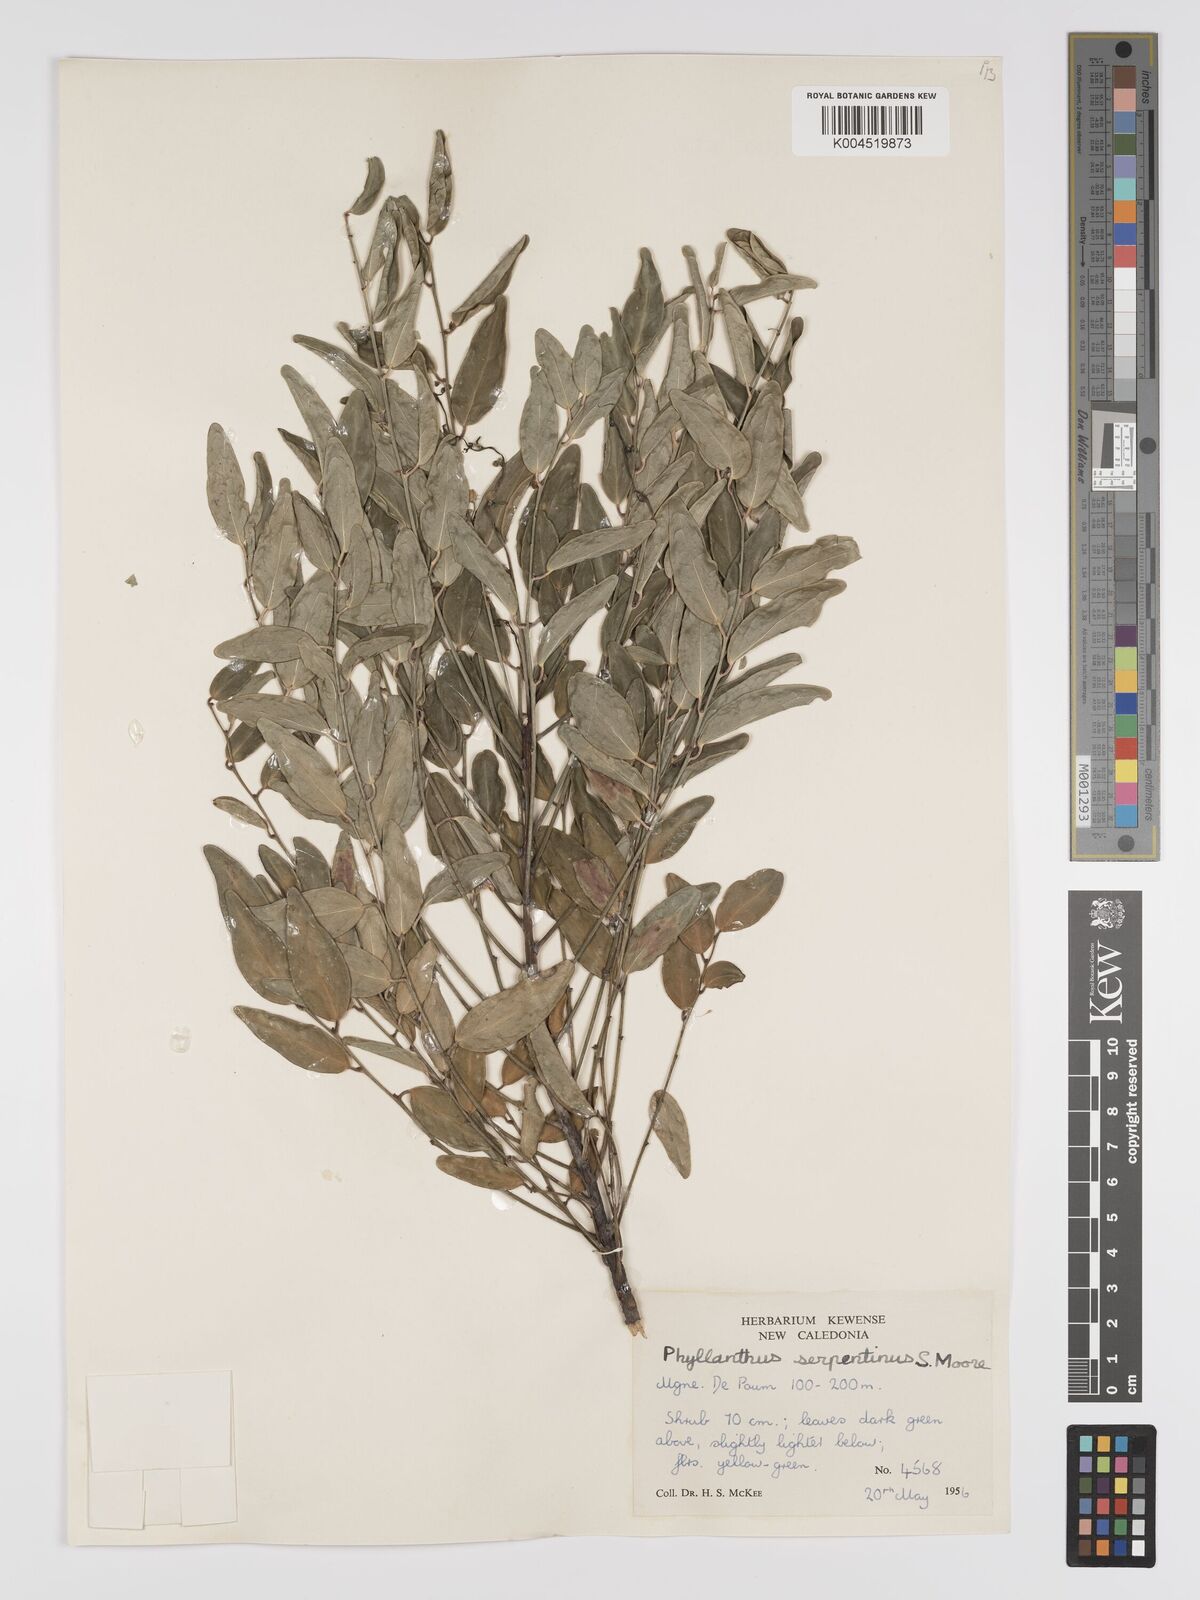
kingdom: Plantae
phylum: Tracheophyta
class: Magnoliopsida
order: Malpighiales
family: Phyllanthaceae
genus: Phyllanthus
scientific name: Phyllanthus serpentinus
